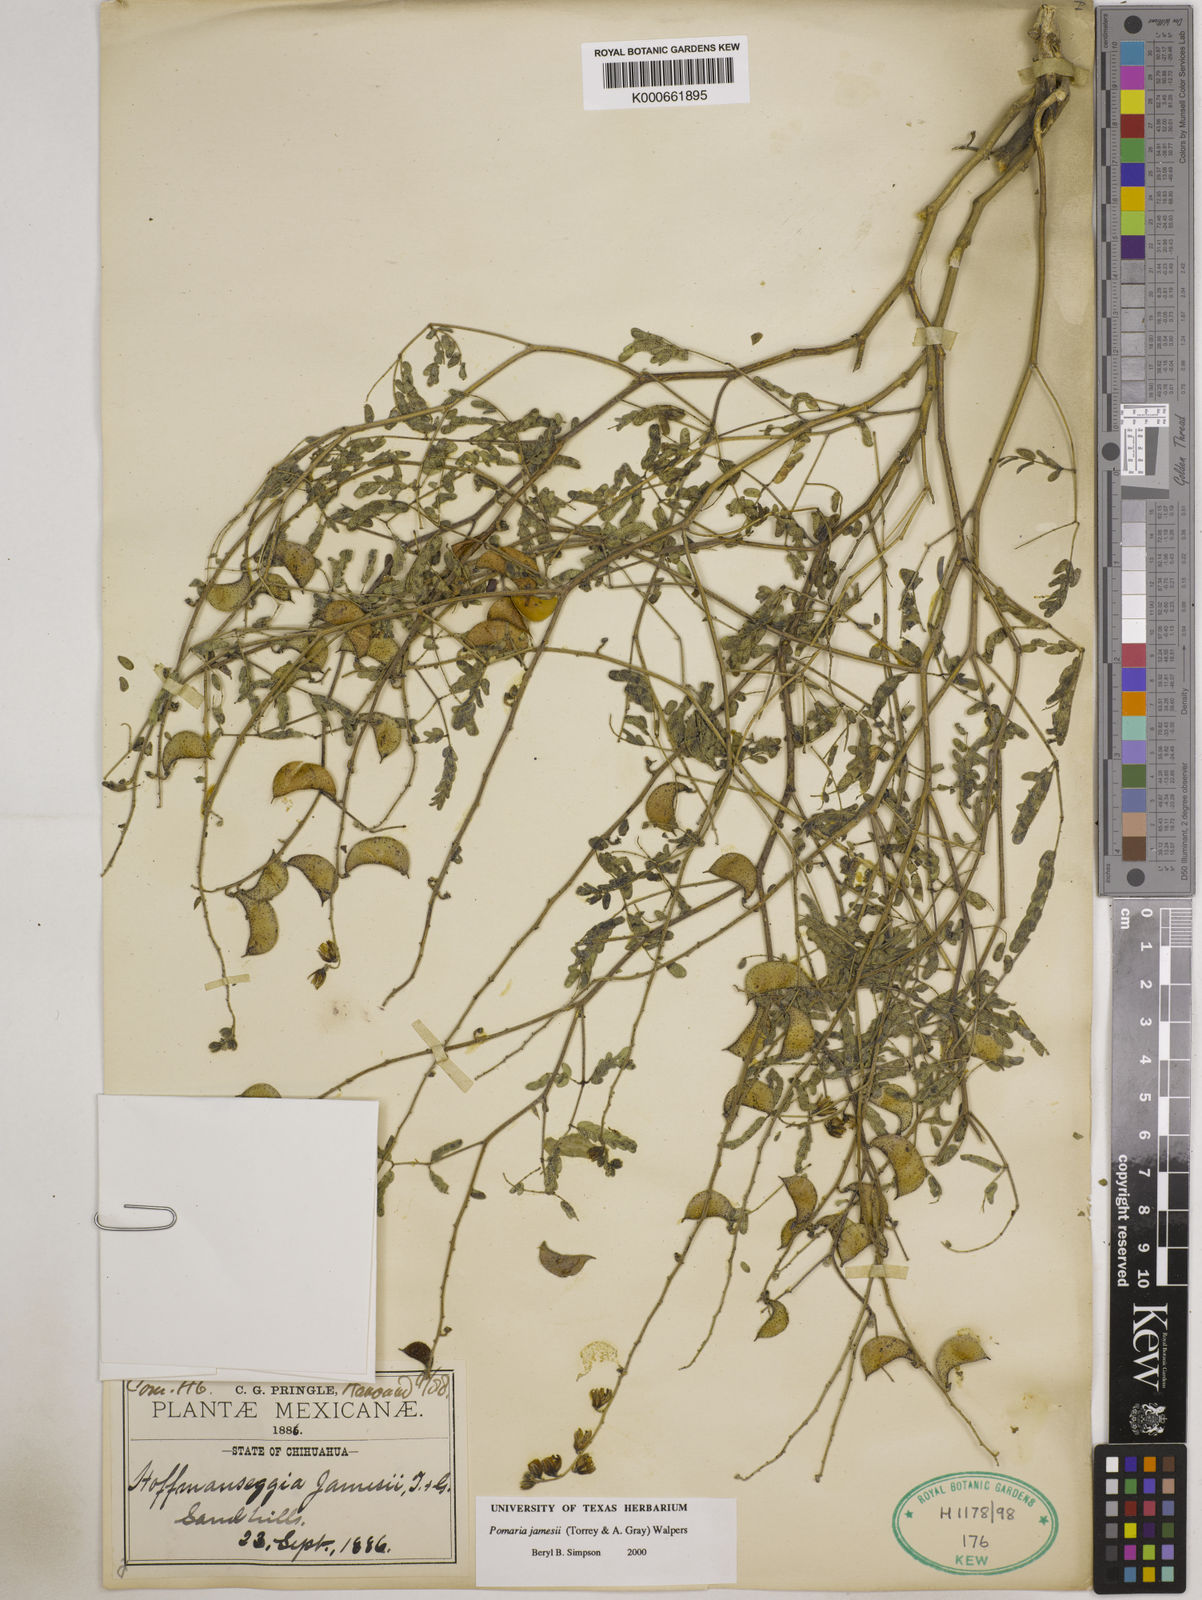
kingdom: Plantae
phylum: Tracheophyta
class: Magnoliopsida
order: Fabales
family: Fabaceae
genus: Pomaria
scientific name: Pomaria jamesii
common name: James' caesalpinia
